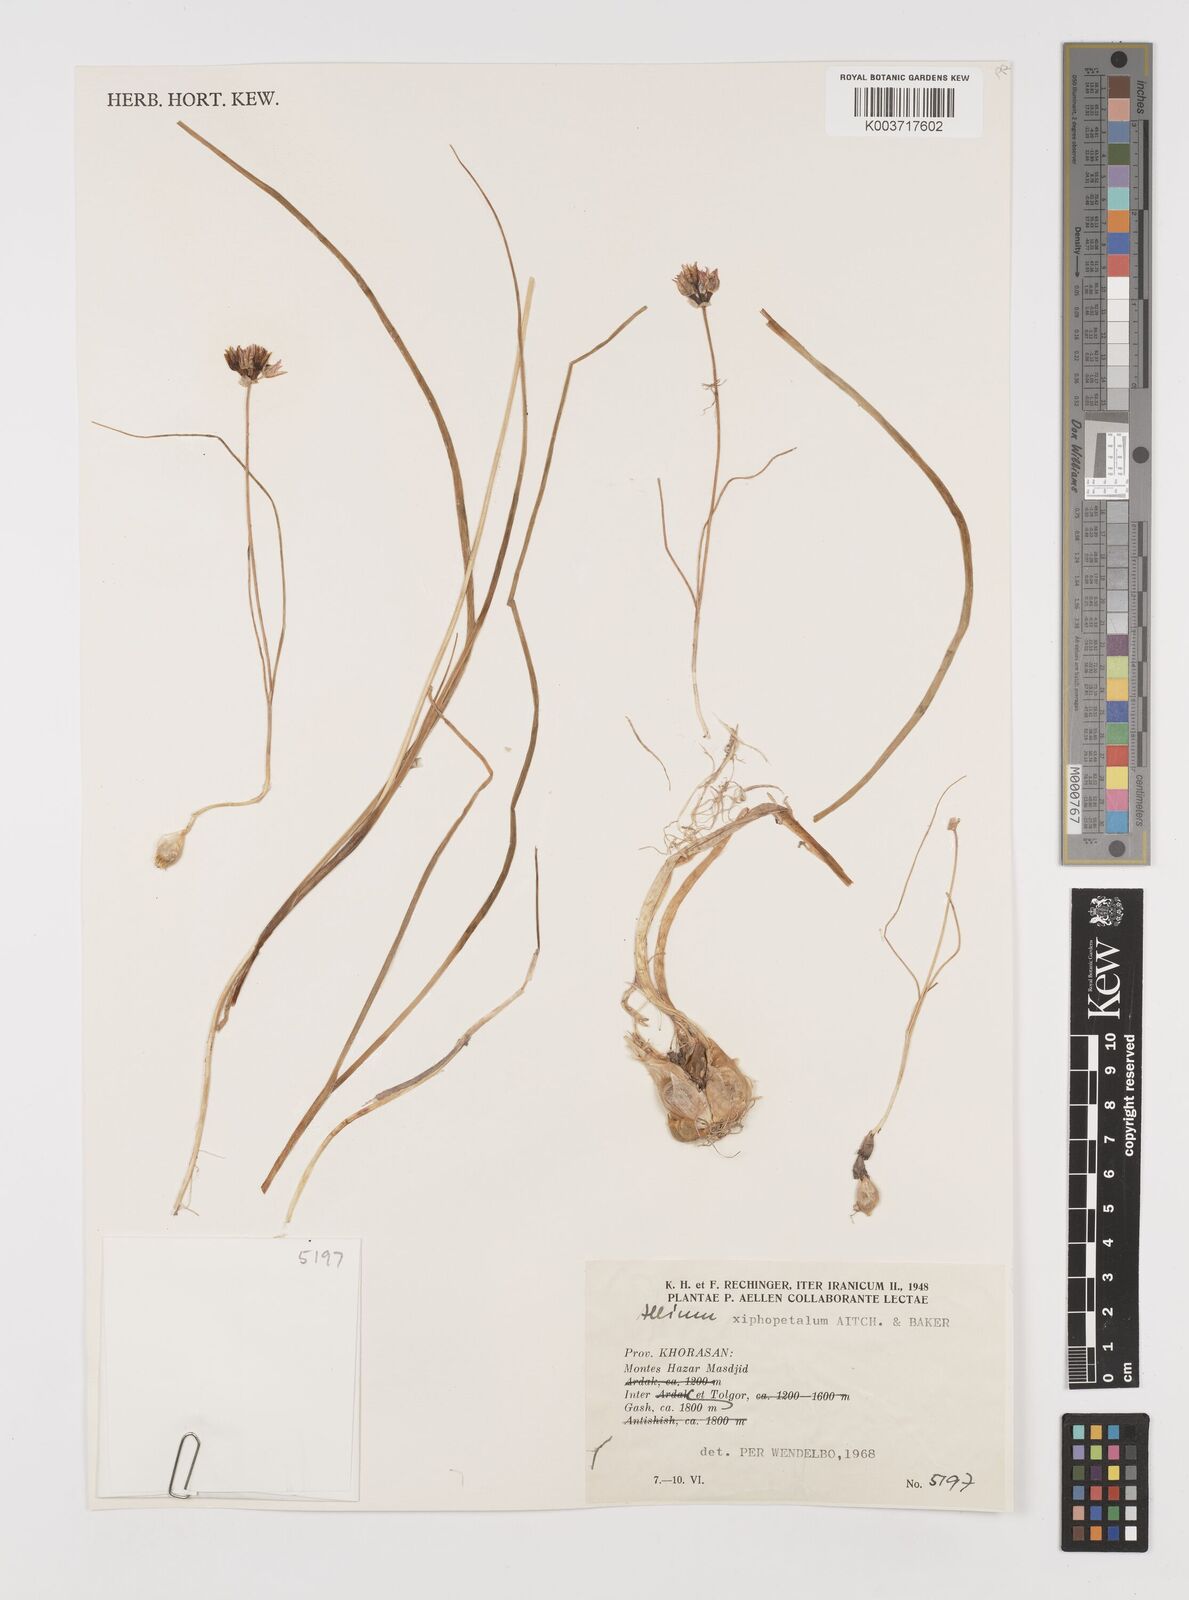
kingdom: Plantae
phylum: Tracheophyta
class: Liliopsida
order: Asparagales
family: Amaryllidaceae
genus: Allium
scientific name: Allium xiphopetalum
